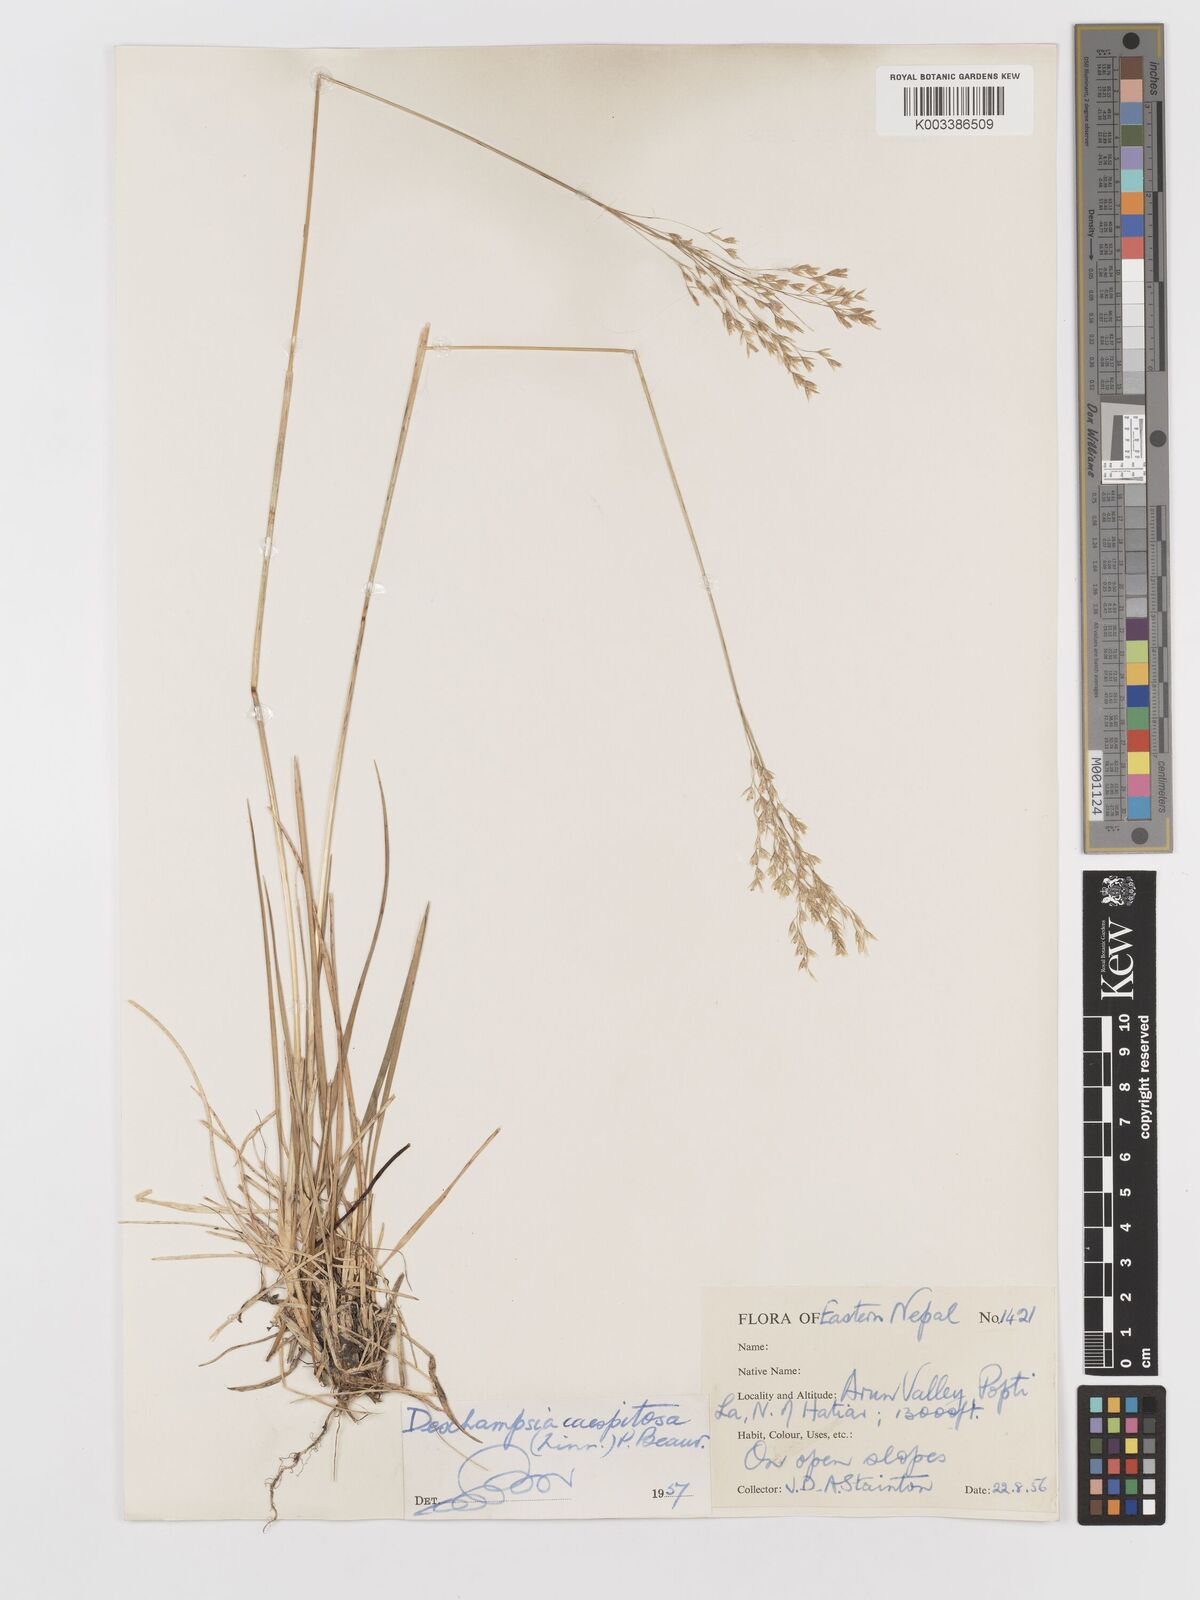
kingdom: Plantae
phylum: Tracheophyta
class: Liliopsida
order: Poales
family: Poaceae
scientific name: Poaceae
